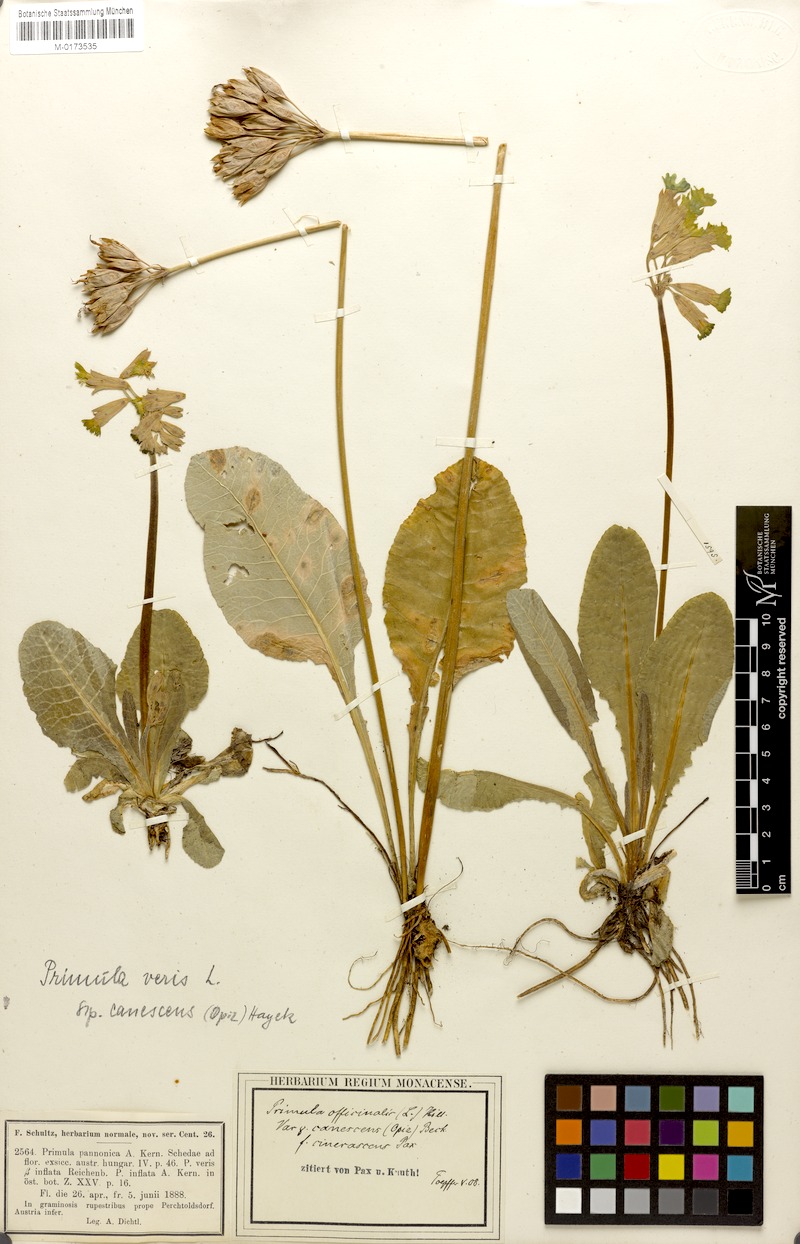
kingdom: Plantae
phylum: Tracheophyta
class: Magnoliopsida
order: Ericales
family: Primulaceae
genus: Primula
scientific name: Primula veris
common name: Cowslip
